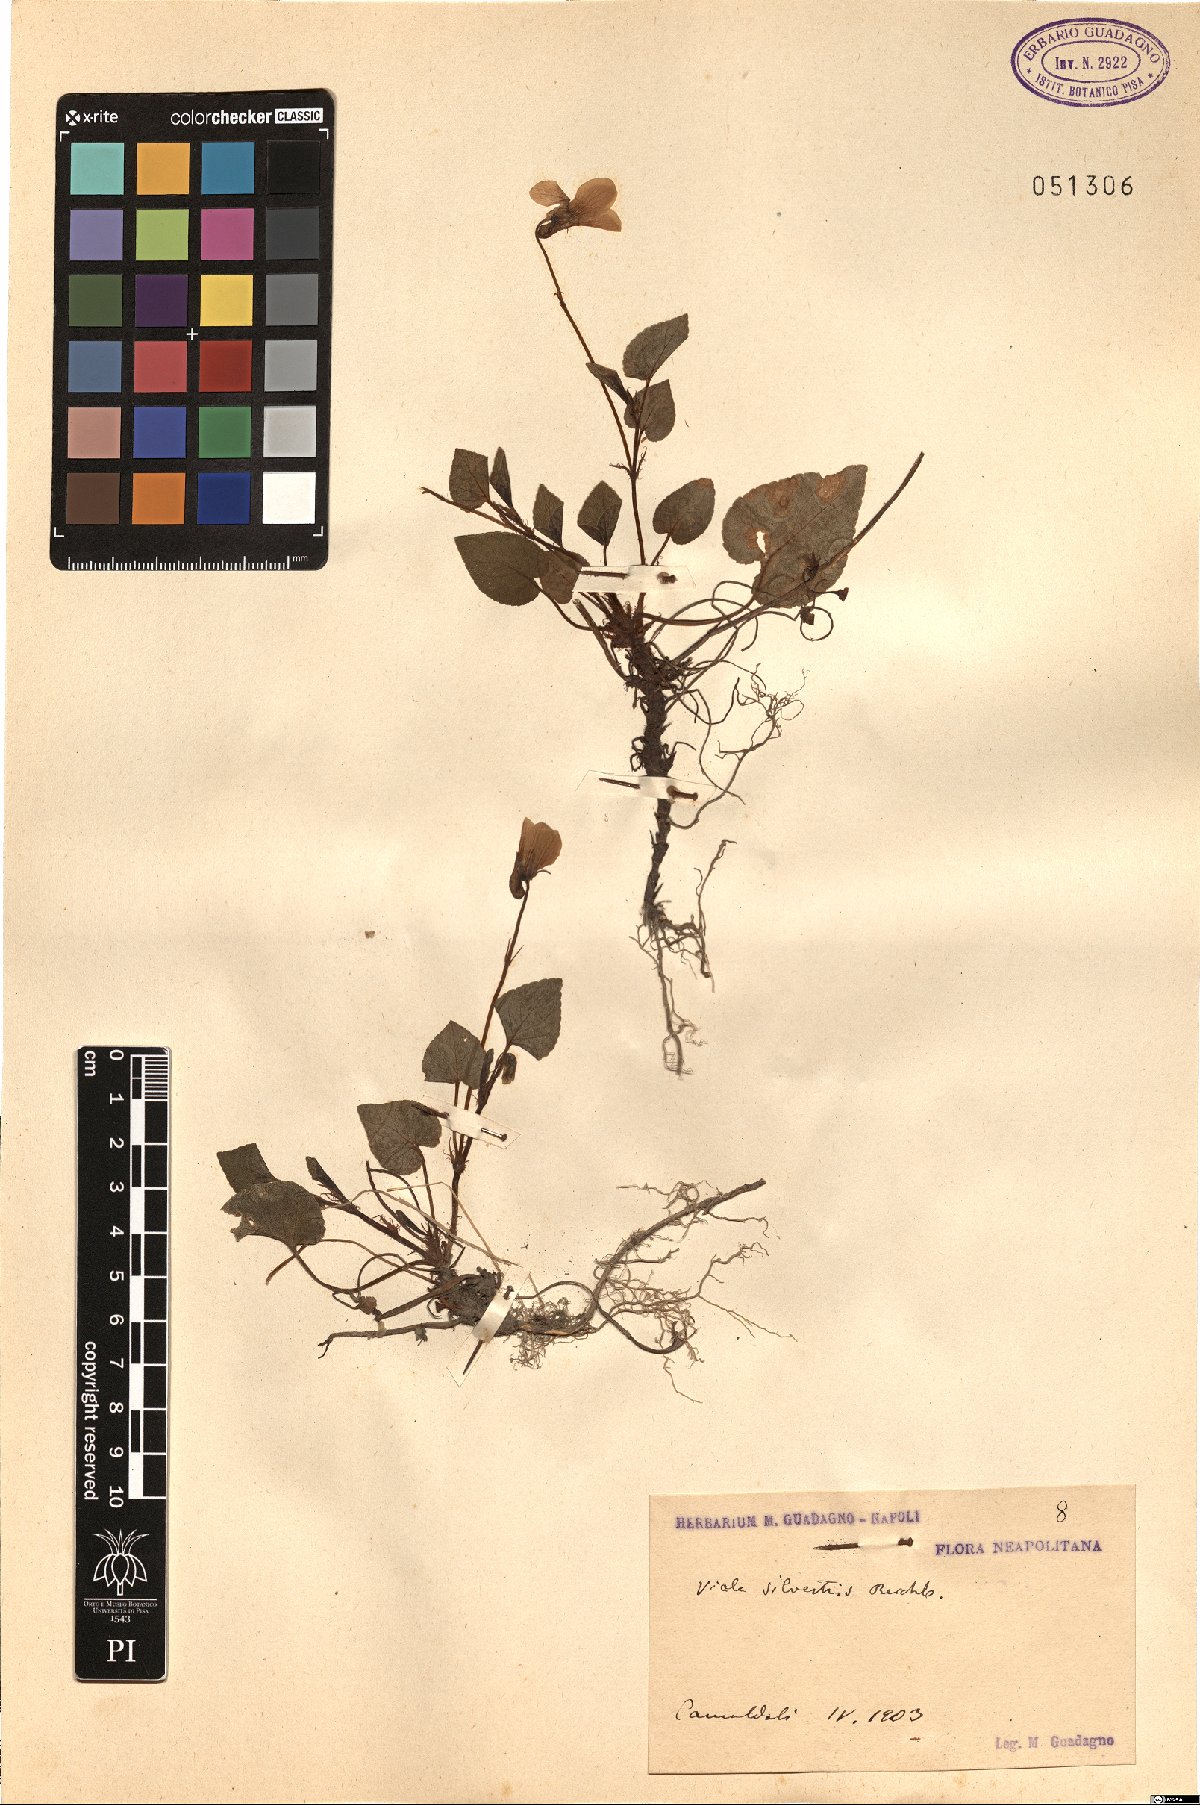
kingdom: Plantae
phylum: Tracheophyta
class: Magnoliopsida
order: Malpighiales
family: Violaceae
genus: Viola
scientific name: Viola canina
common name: Heath dog-violet
